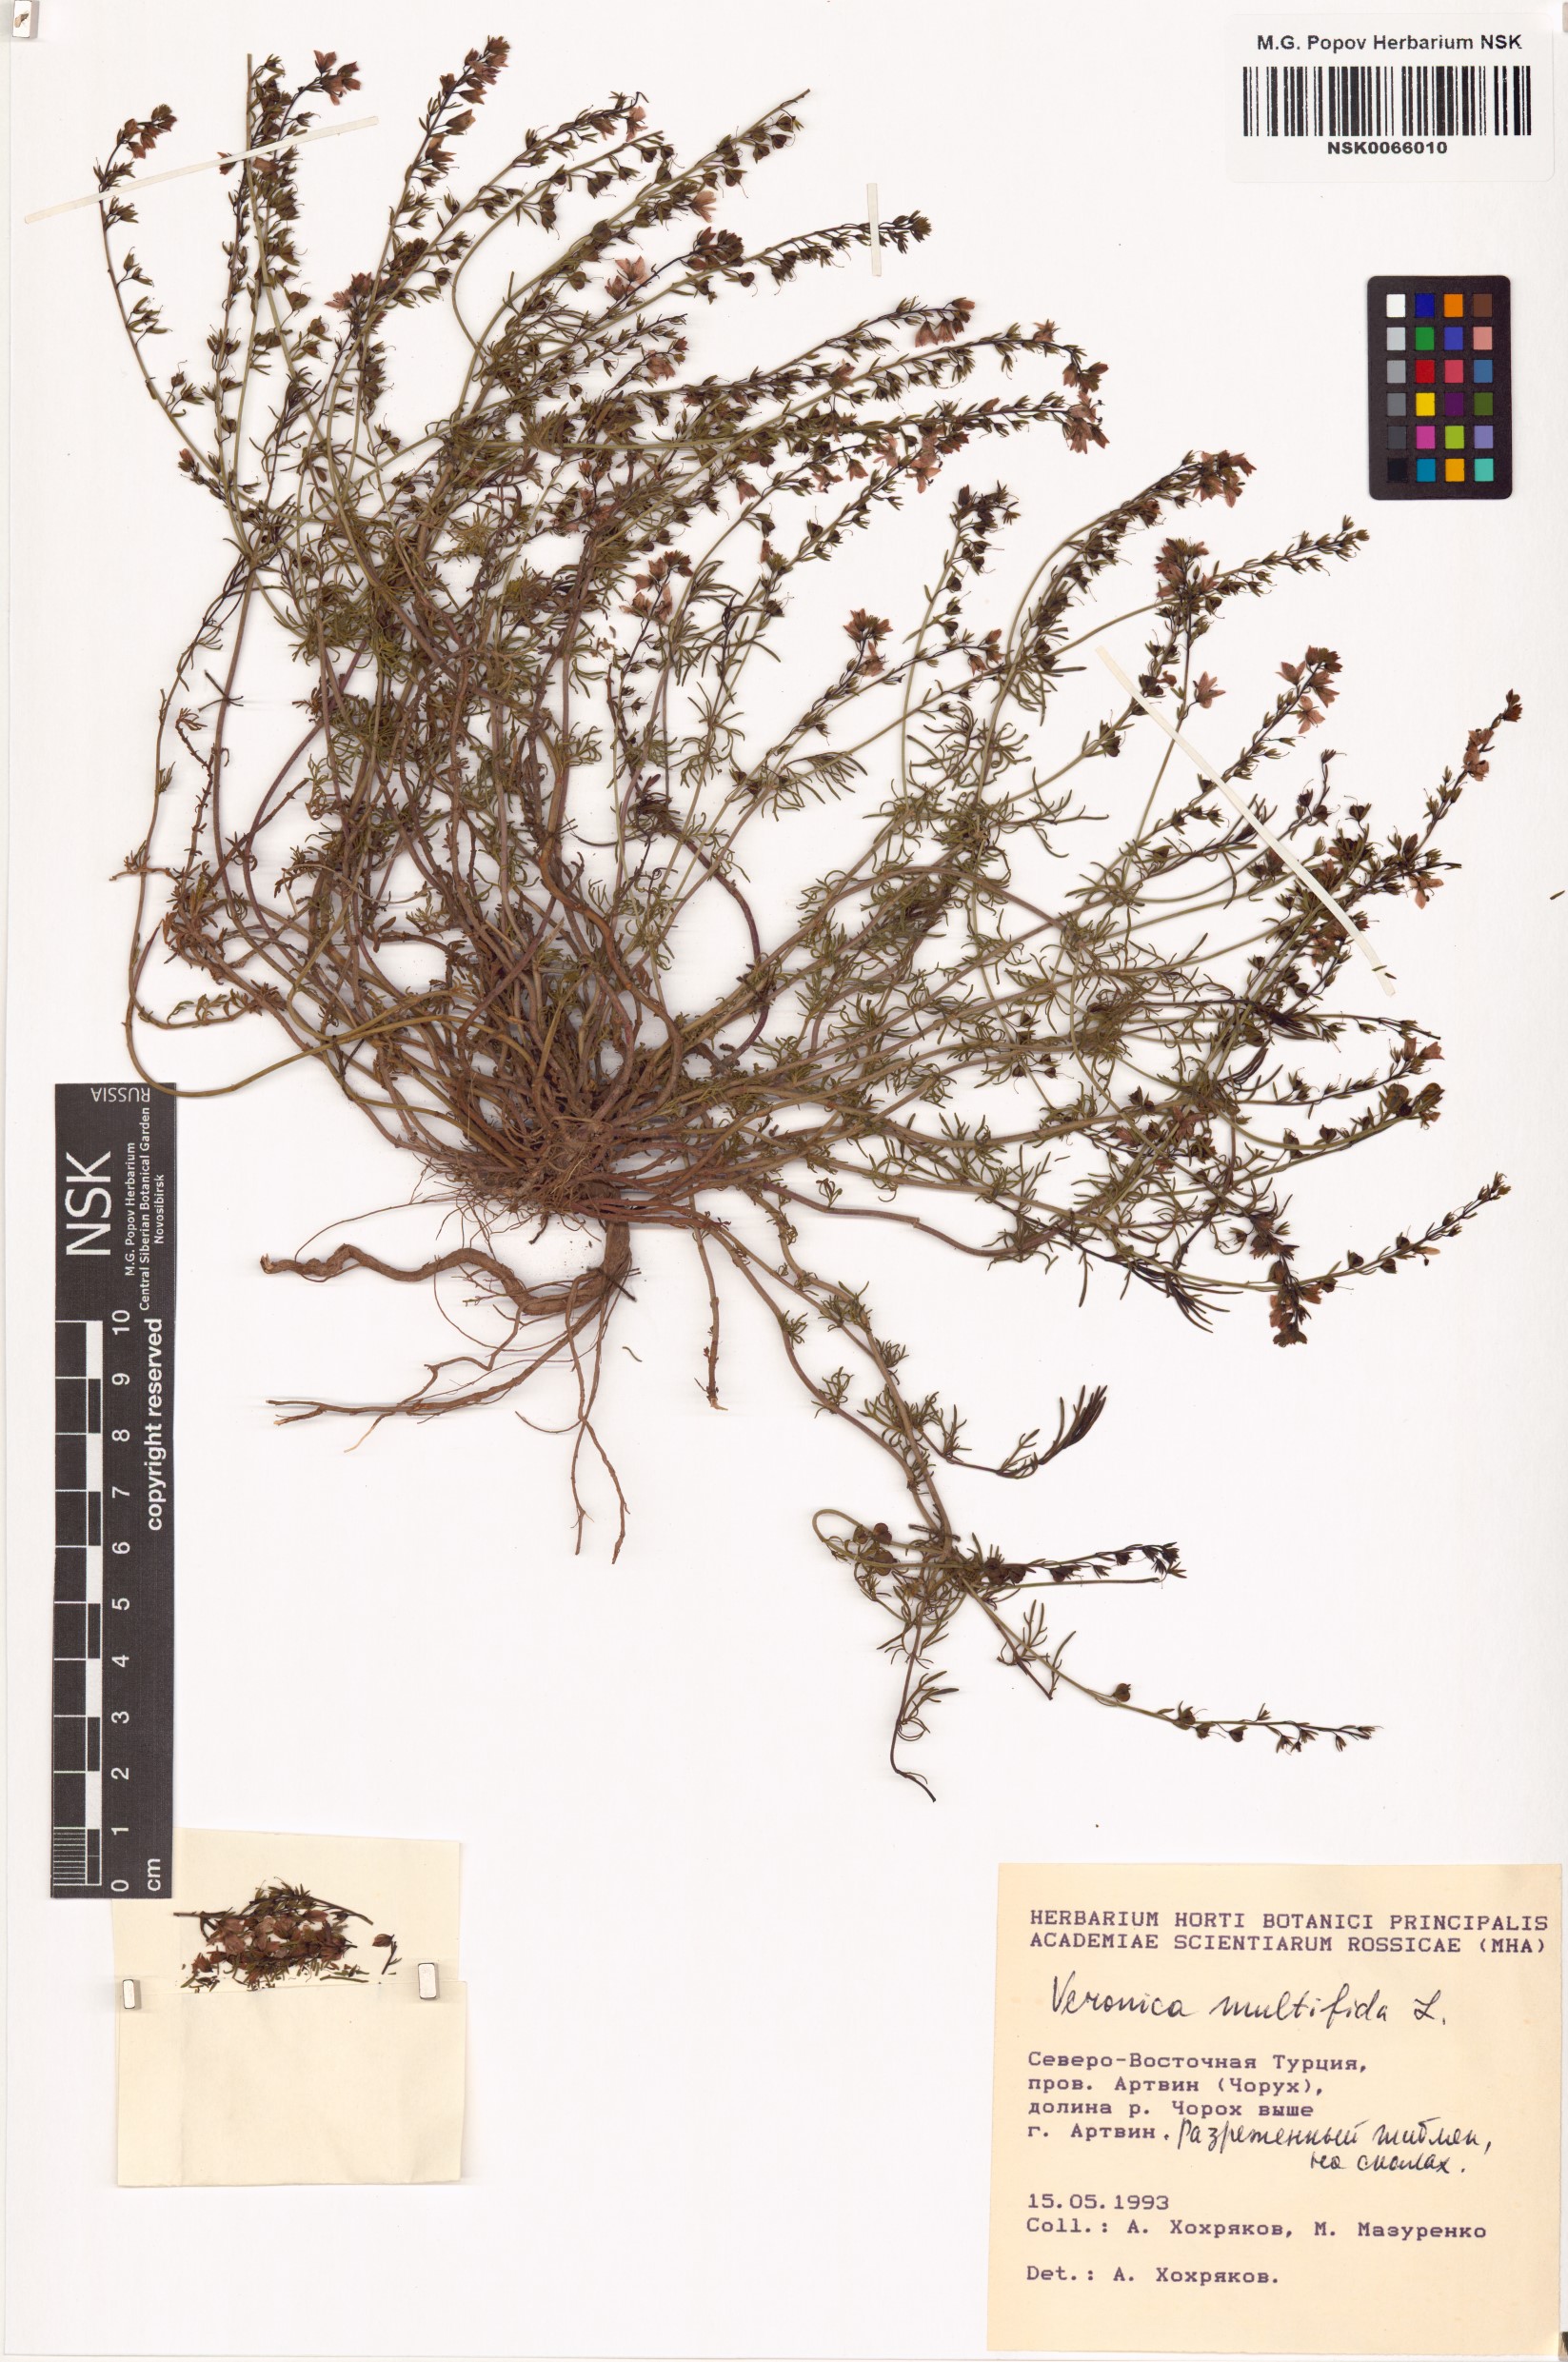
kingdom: Plantae
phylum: Tracheophyta
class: Magnoliopsida
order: Lamiales
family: Plantaginaceae
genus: Veronica
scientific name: Veronica multifida
